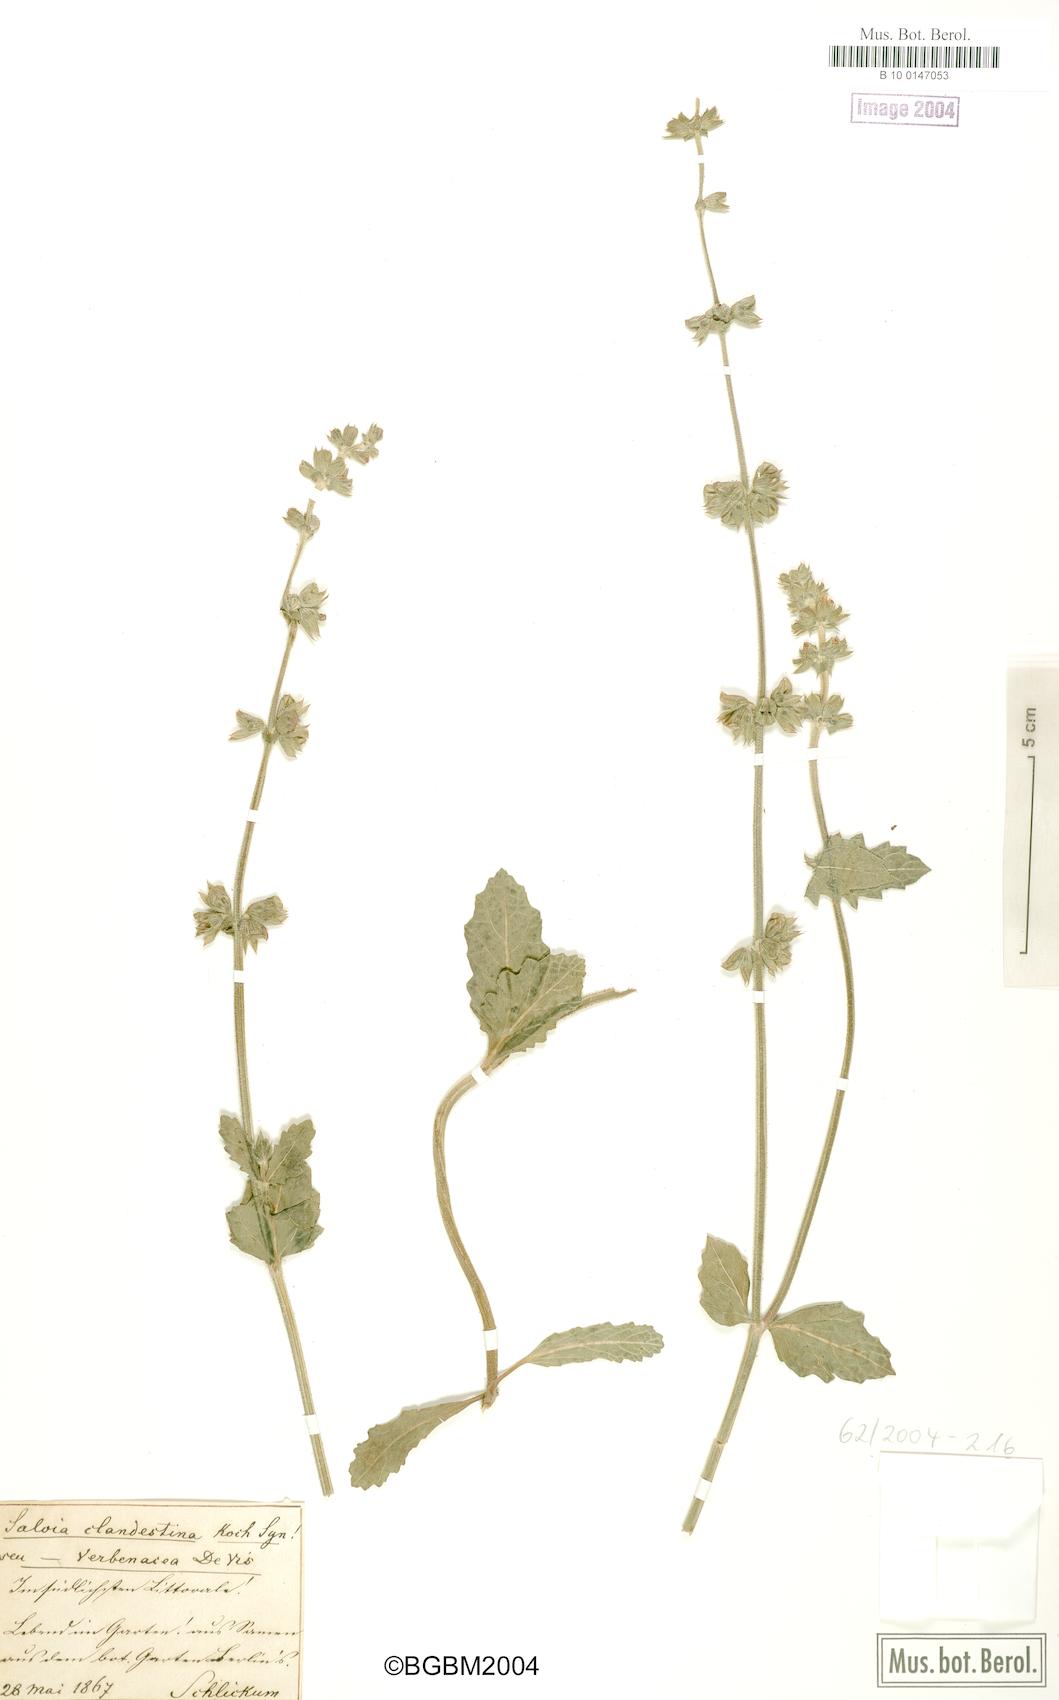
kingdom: Plantae
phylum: Tracheophyta
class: Magnoliopsida
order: Lamiales
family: Lamiaceae
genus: Salvia
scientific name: Salvia verbenaca
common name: Wild clary
